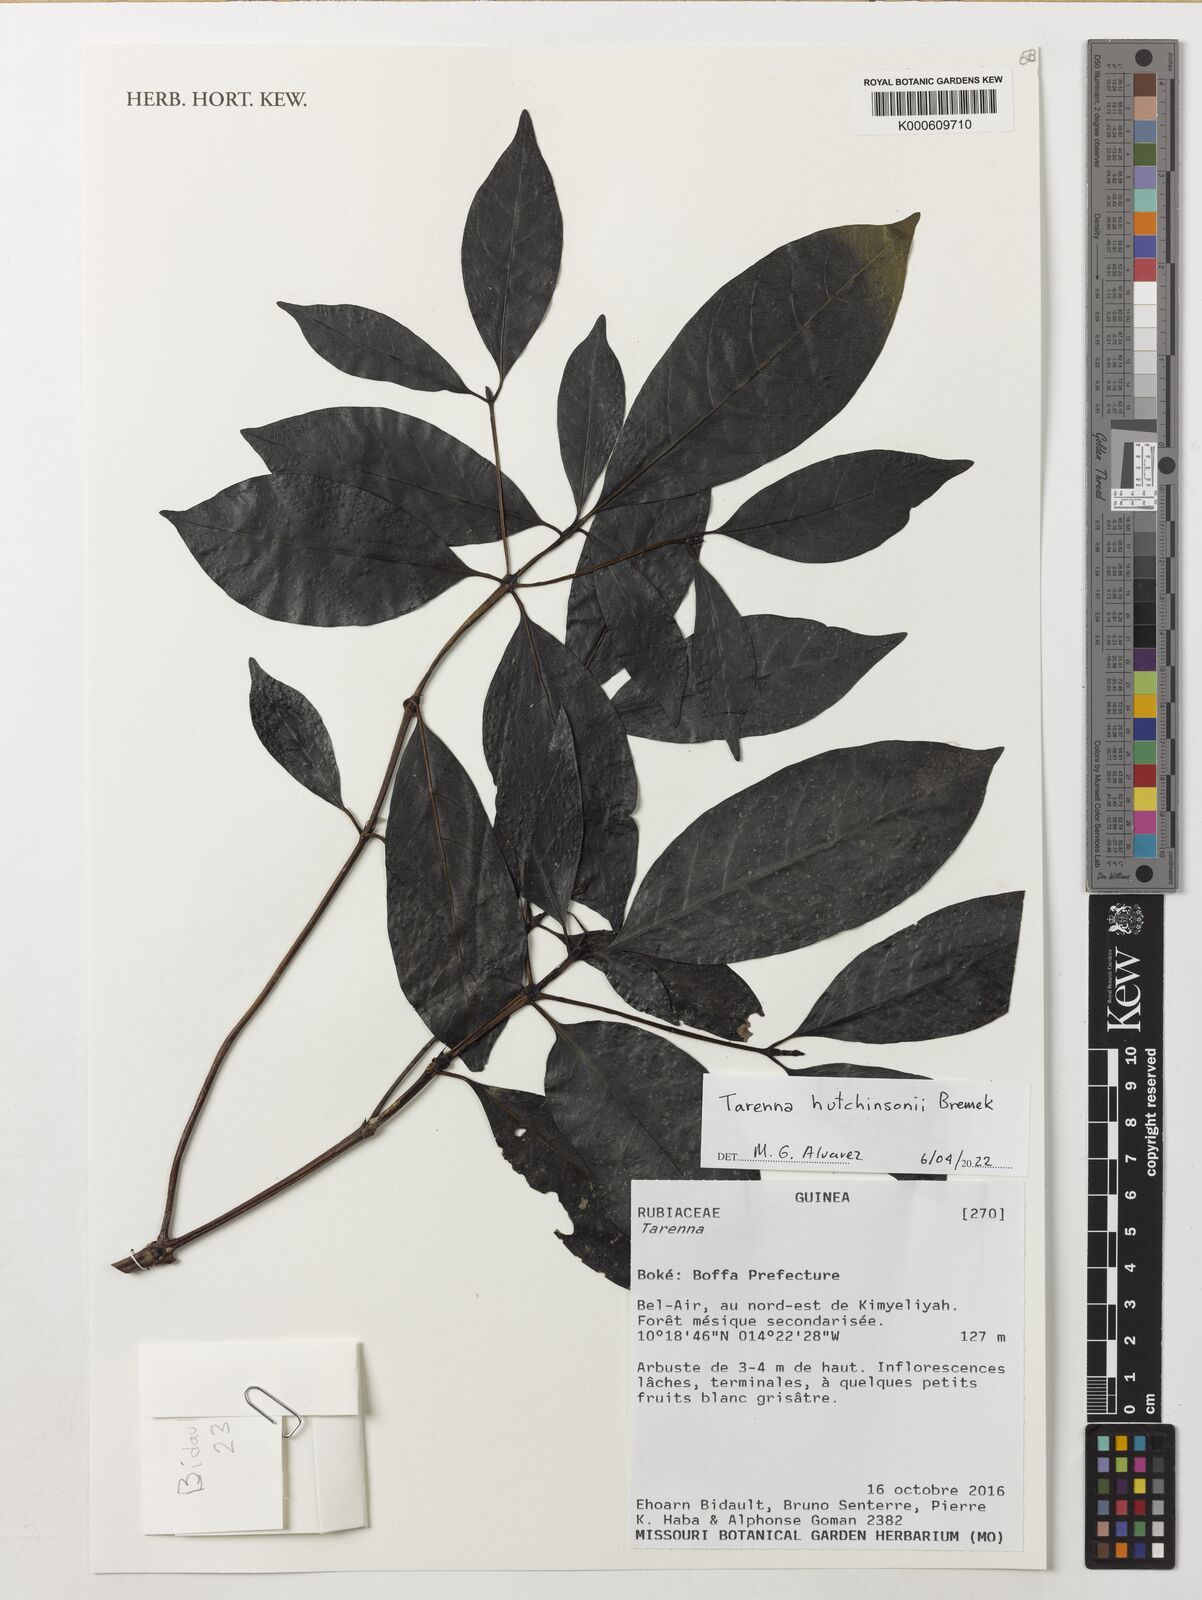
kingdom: Plantae
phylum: Tracheophyta
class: Magnoliopsida
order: Gentianales
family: Rubiaceae
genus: Tarenna
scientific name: Tarenna hutchinsonii
